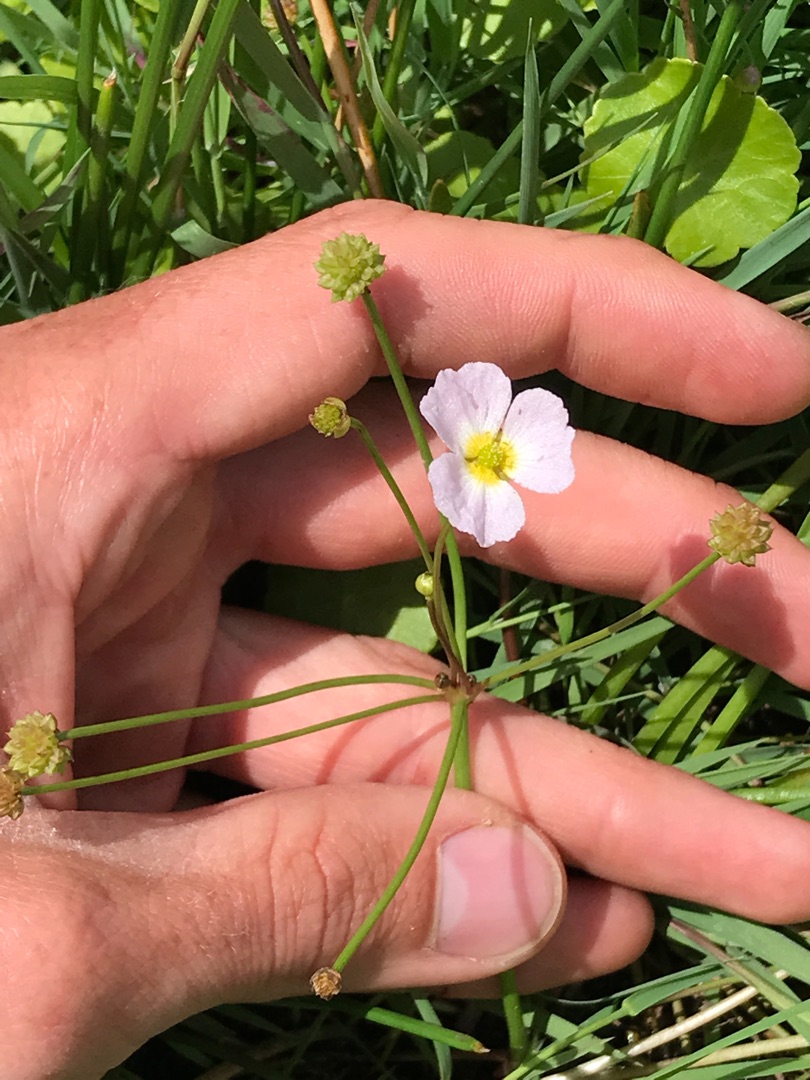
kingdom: Plantae
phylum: Tracheophyta
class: Liliopsida
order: Alismatales
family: Alismataceae
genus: Baldellia
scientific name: Baldellia ranunculoides
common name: Søpryd
